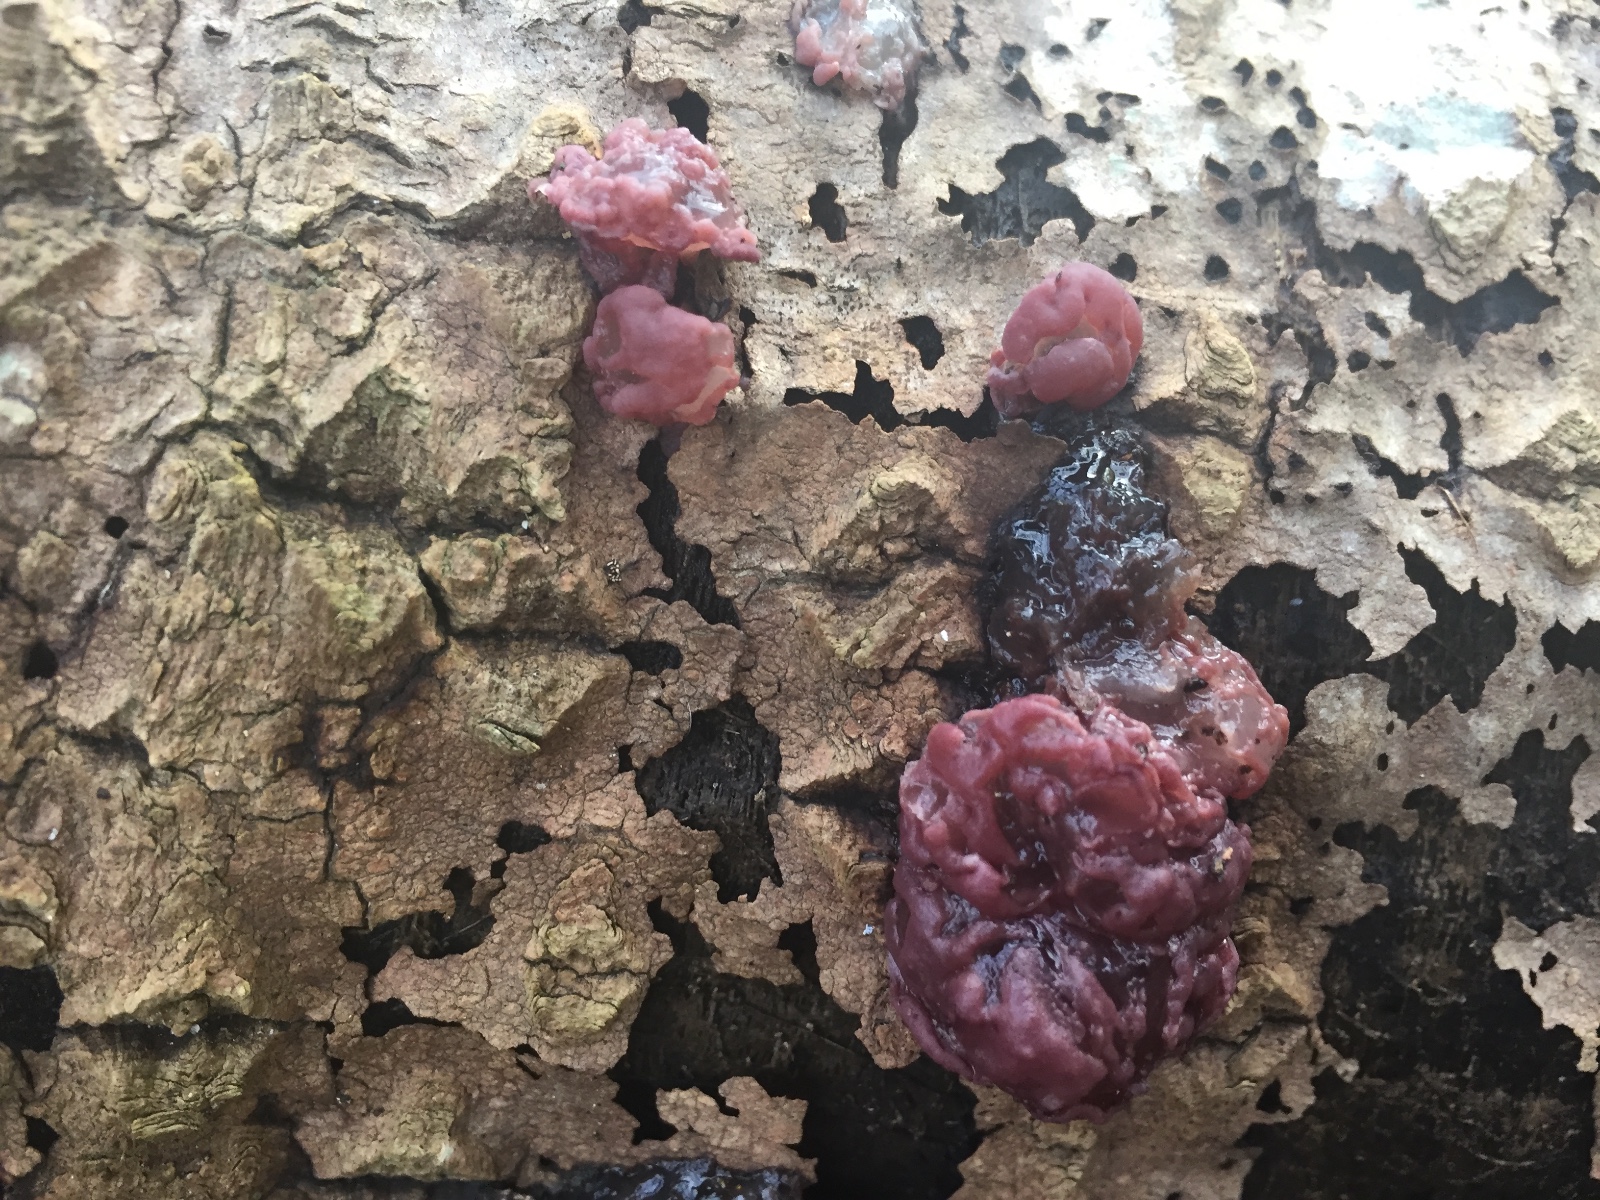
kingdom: Fungi
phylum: Ascomycota
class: Leotiomycetes
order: Helotiales
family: Gelatinodiscaceae
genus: Ascocoryne
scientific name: Ascocoryne
